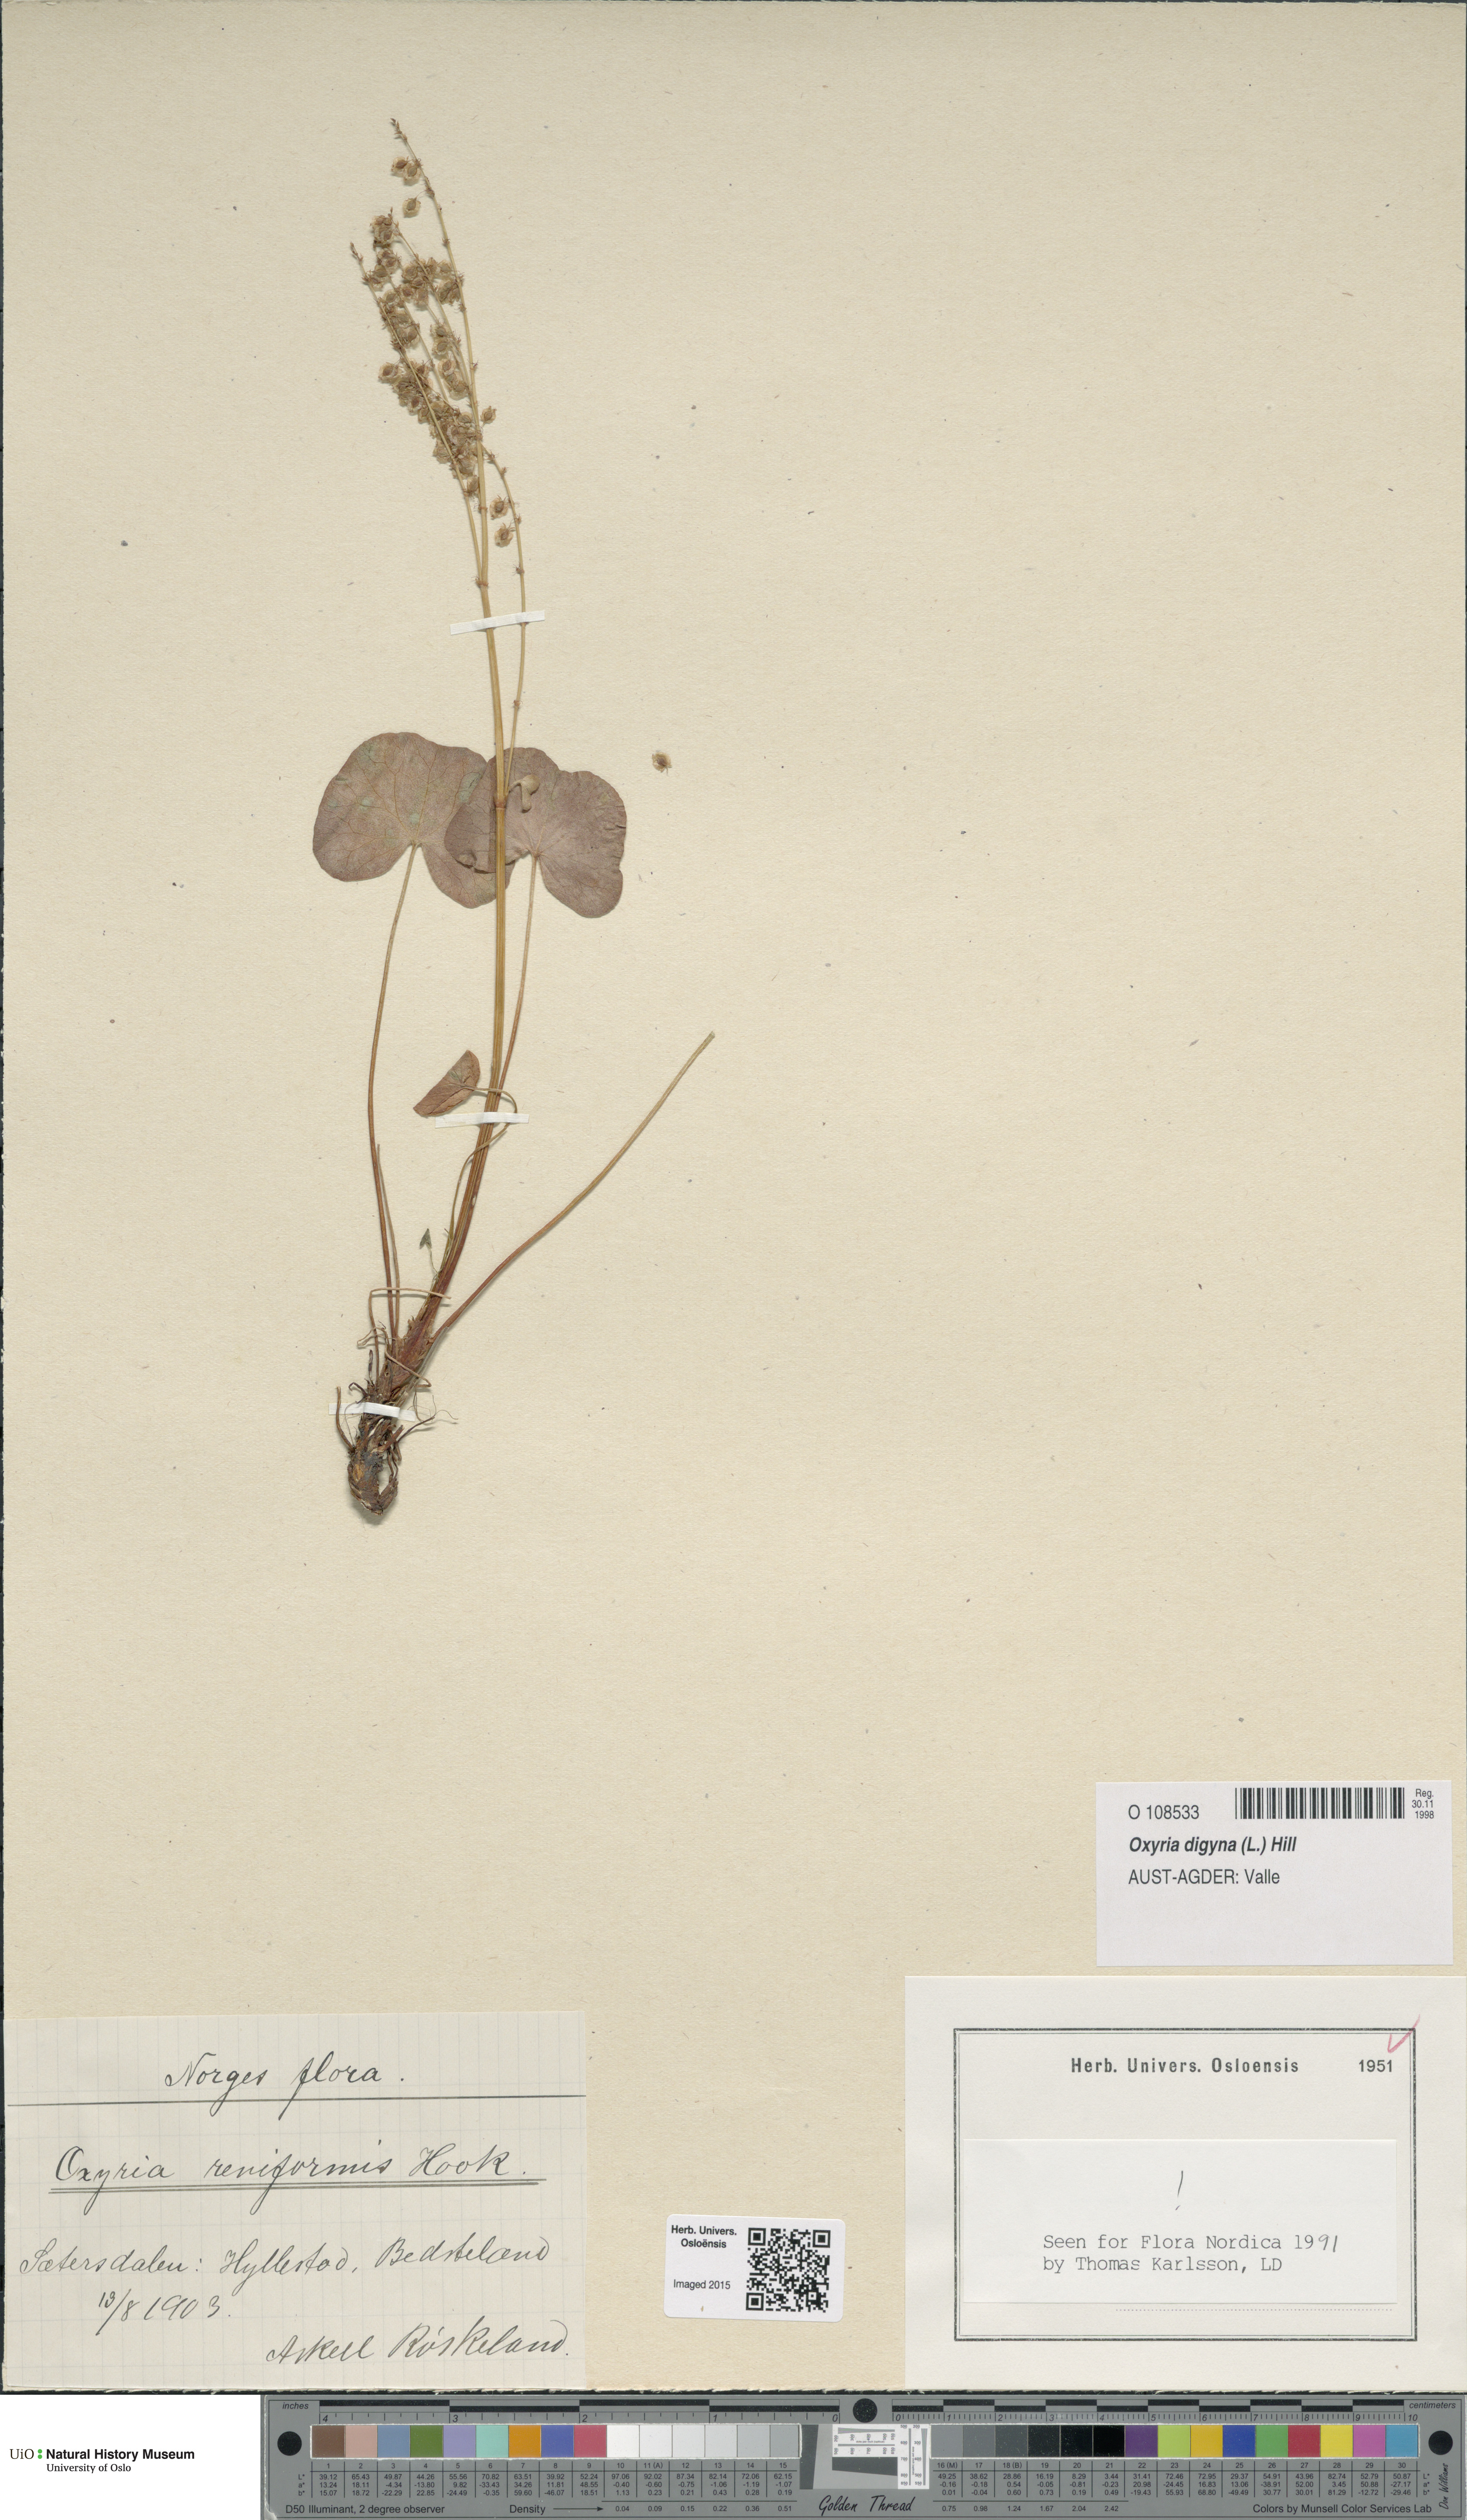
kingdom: Plantae
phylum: Tracheophyta
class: Magnoliopsida
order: Caryophyllales
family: Polygonaceae
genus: Oxyria
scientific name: Oxyria digyna
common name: Alpine mountain-sorrel
